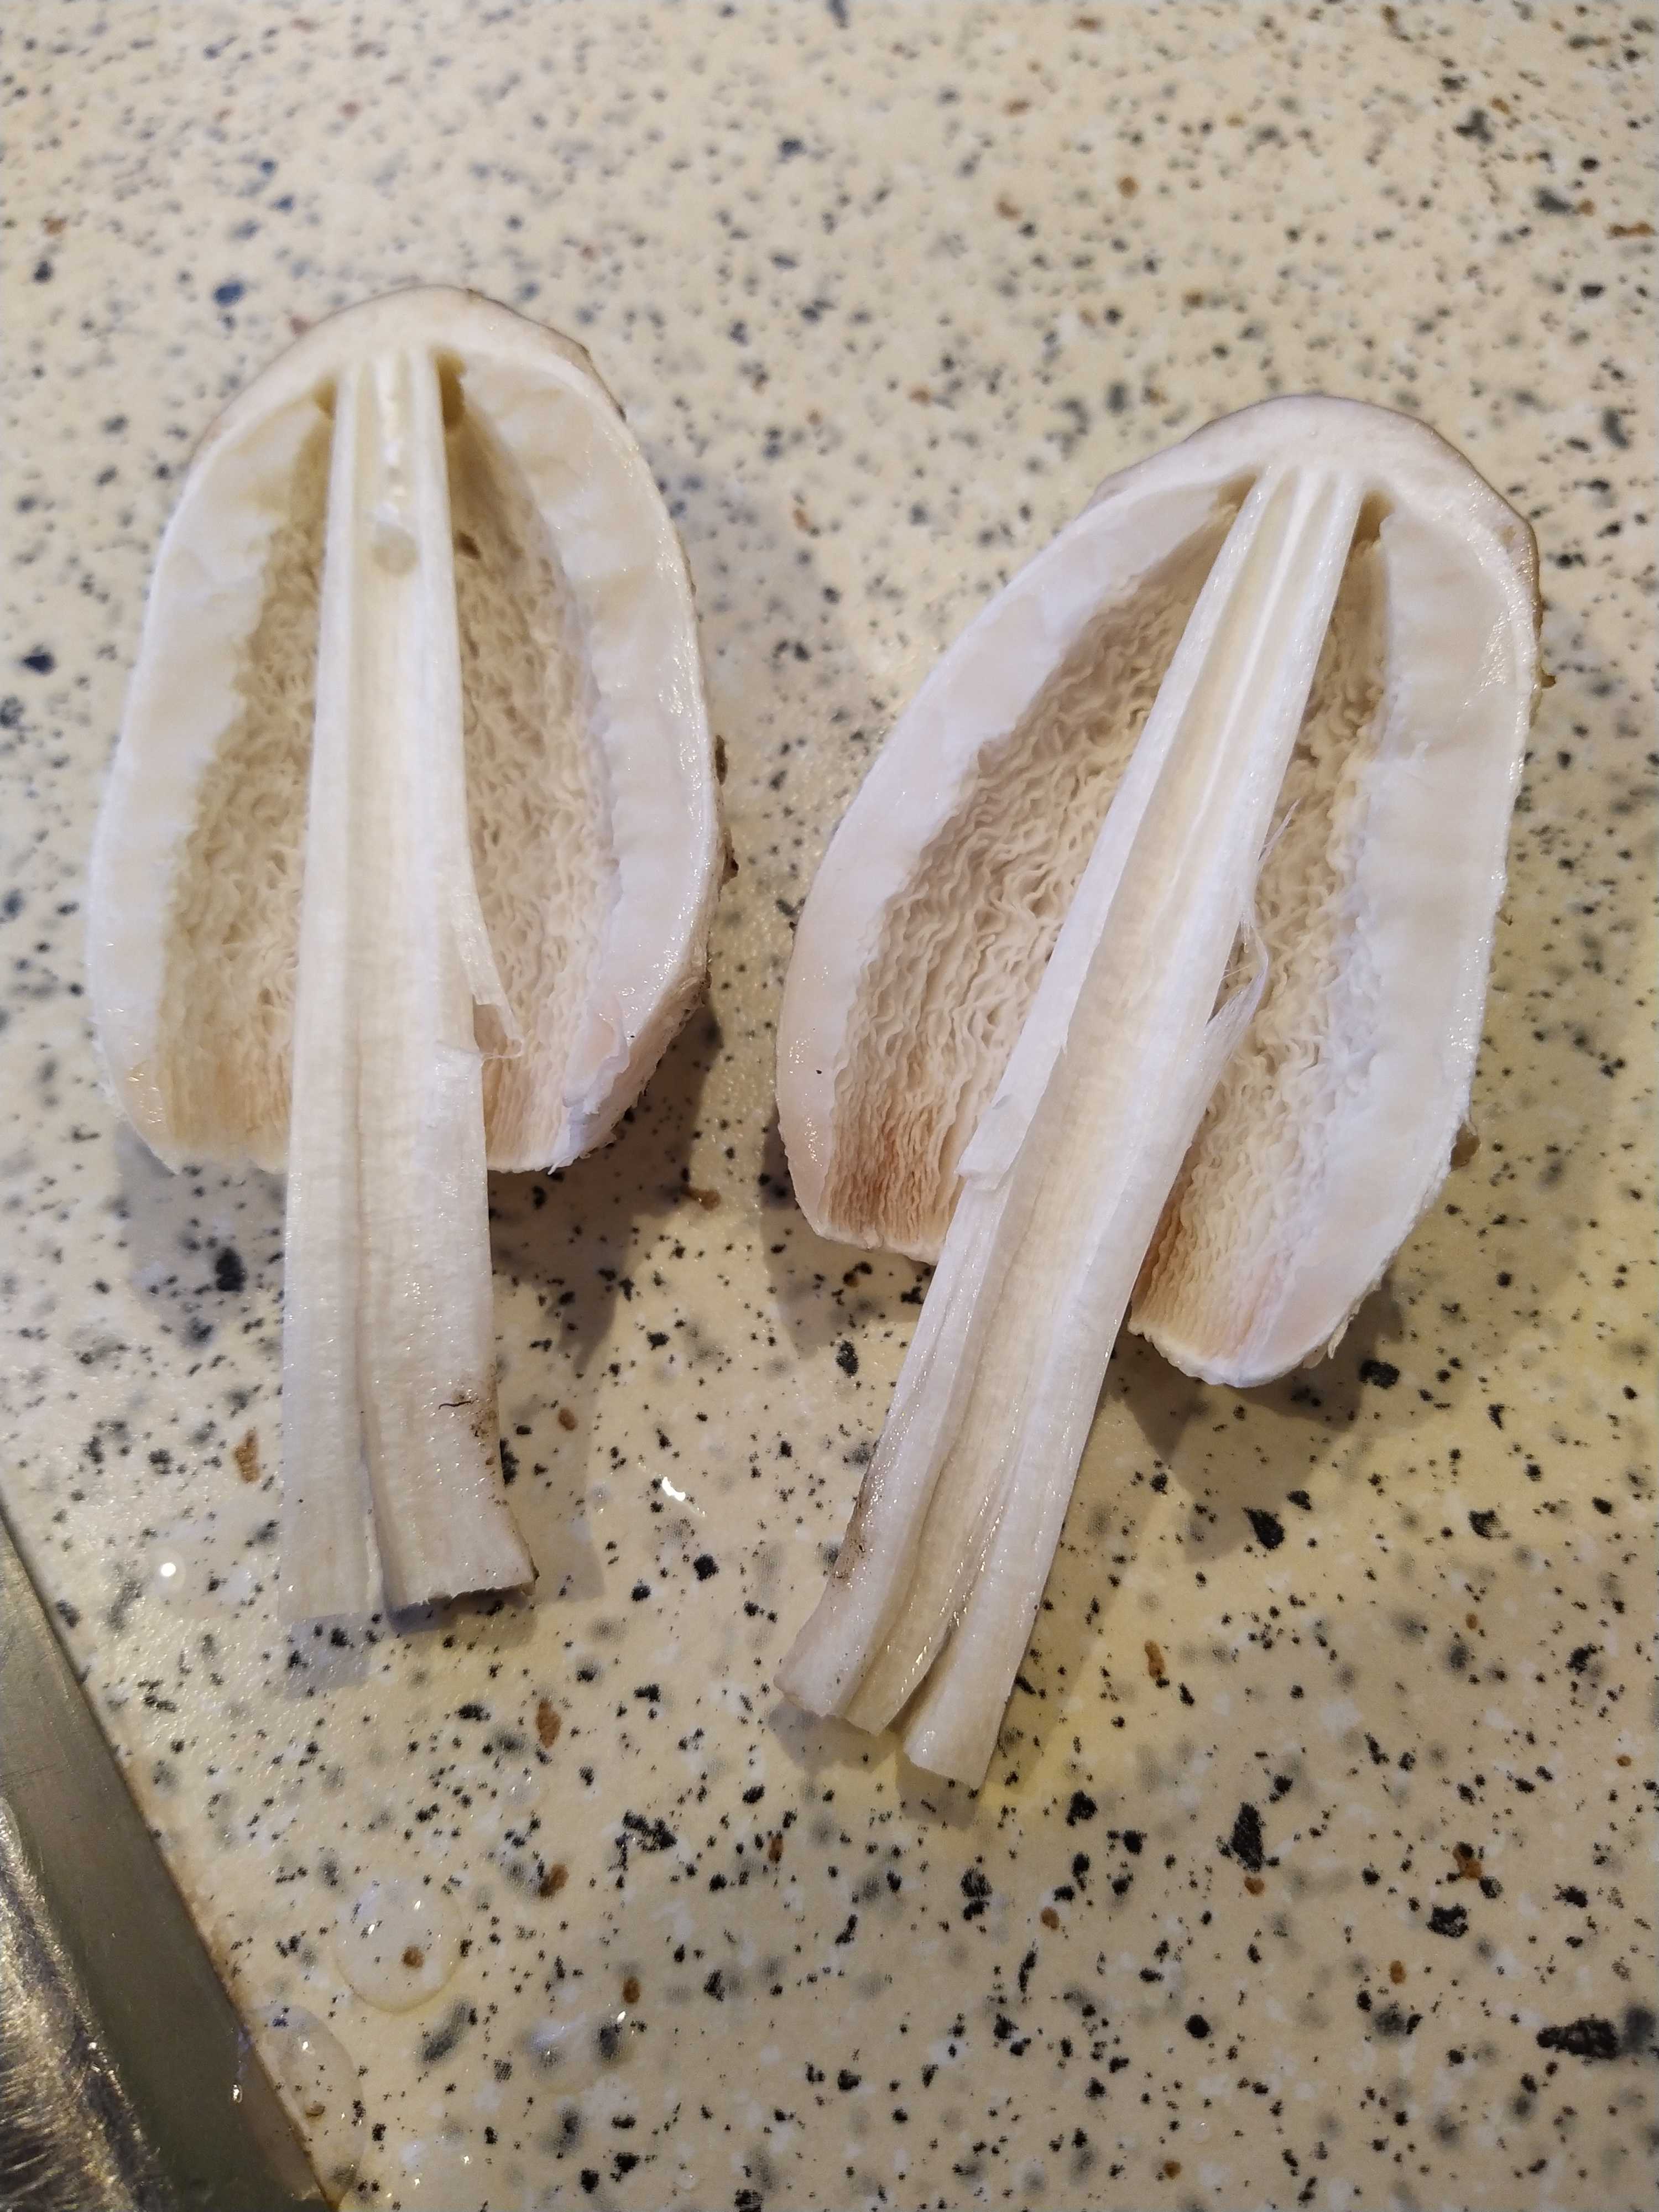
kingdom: Fungi
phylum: Basidiomycota
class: Agaricomycetes
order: Agaricales
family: Agaricaceae
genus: Coprinus
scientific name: Coprinus comatus
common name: stor parykhat
